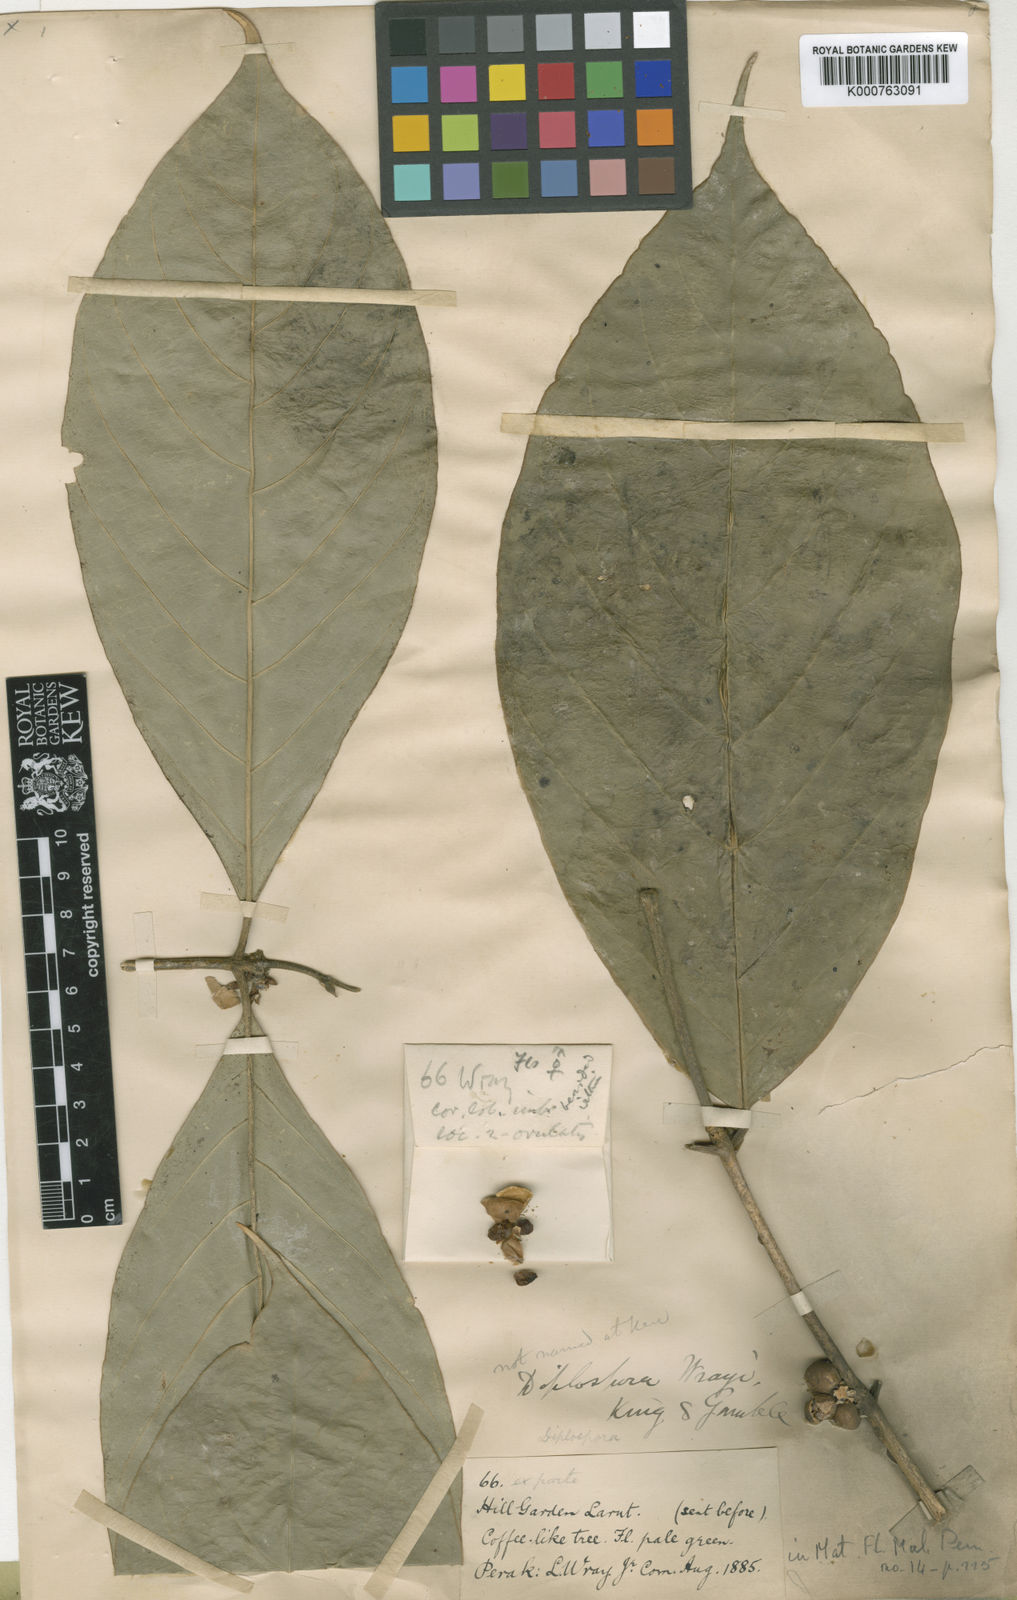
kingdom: Plantae
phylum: Tracheophyta
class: Magnoliopsida
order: Gentianales
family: Rubiaceae
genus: Diplospora
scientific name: Diplospora wrayi
